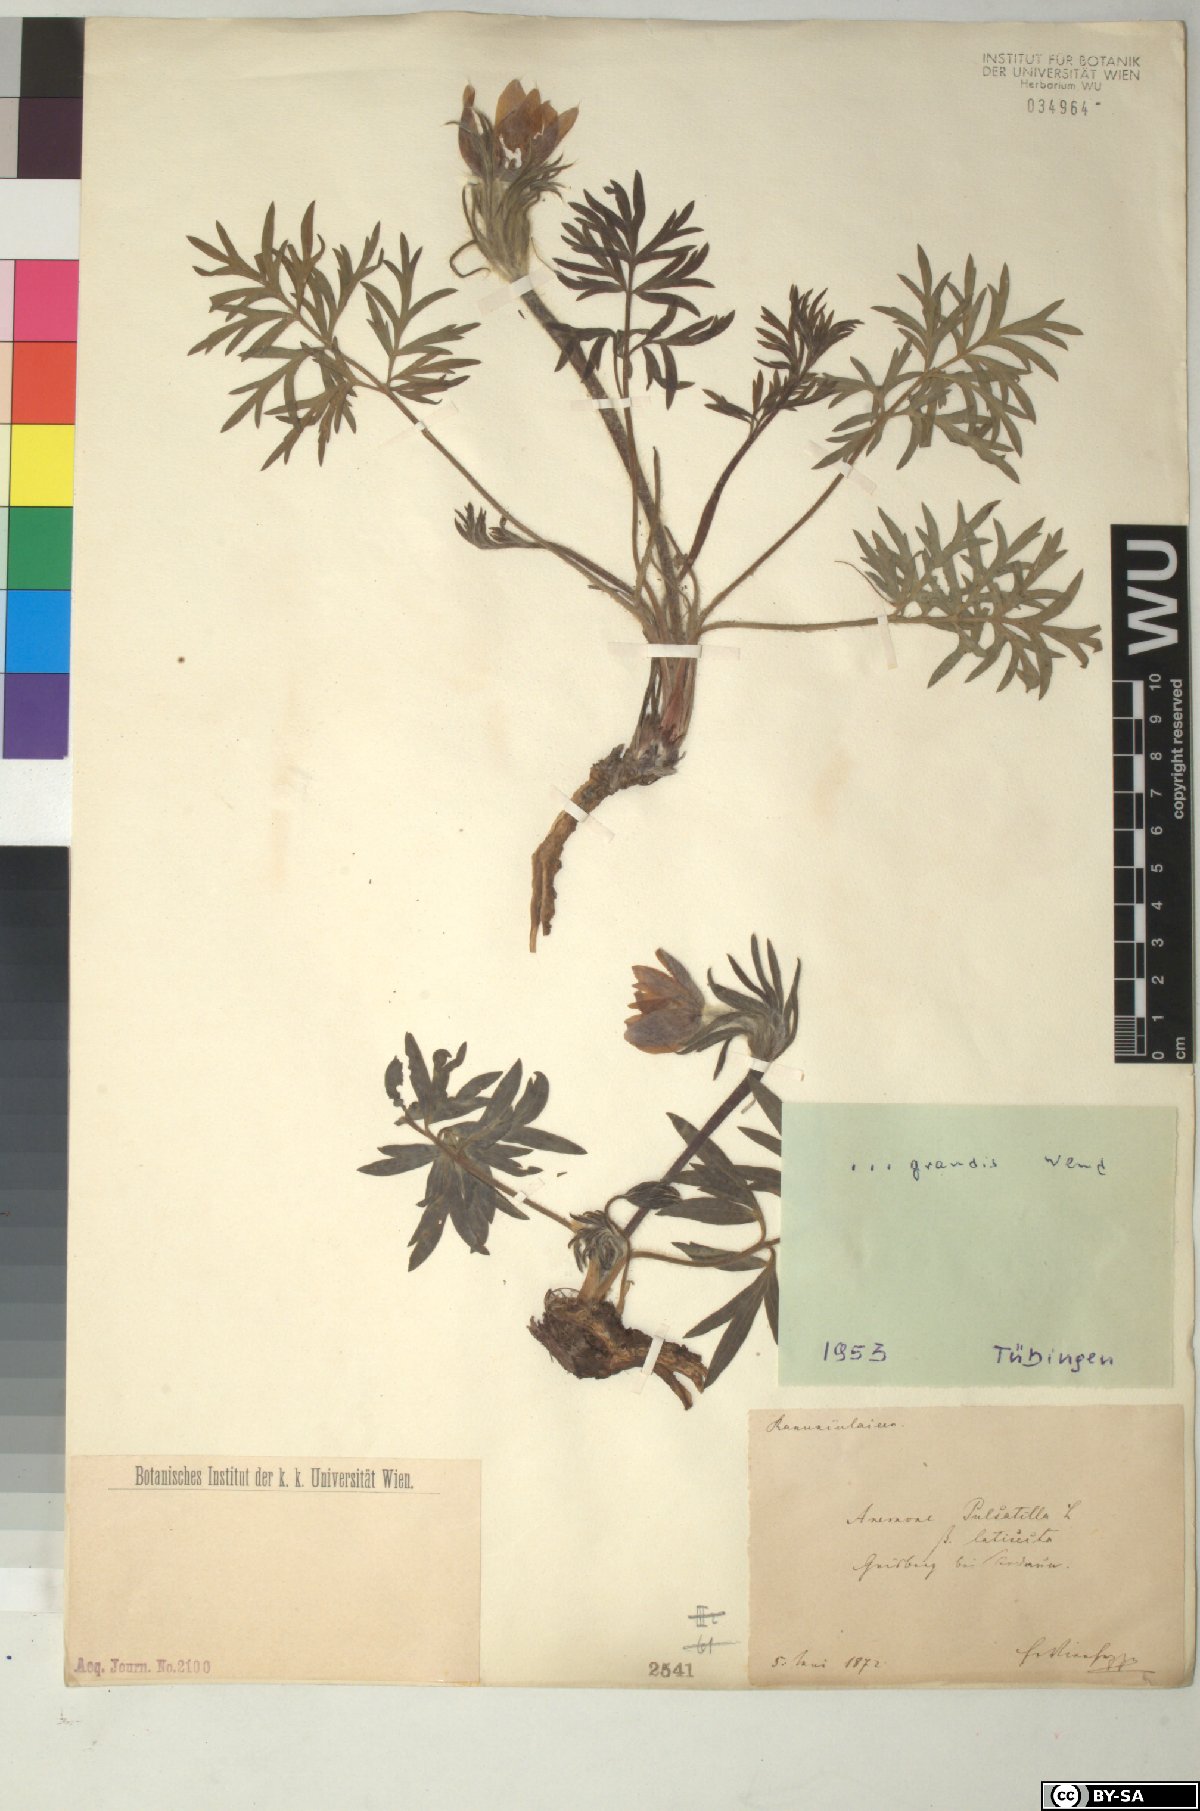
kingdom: Plantae
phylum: Tracheophyta
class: Magnoliopsida
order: Ranunculales
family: Ranunculaceae
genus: Pulsatilla
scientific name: Pulsatilla grandis
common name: Greater pasque flower
